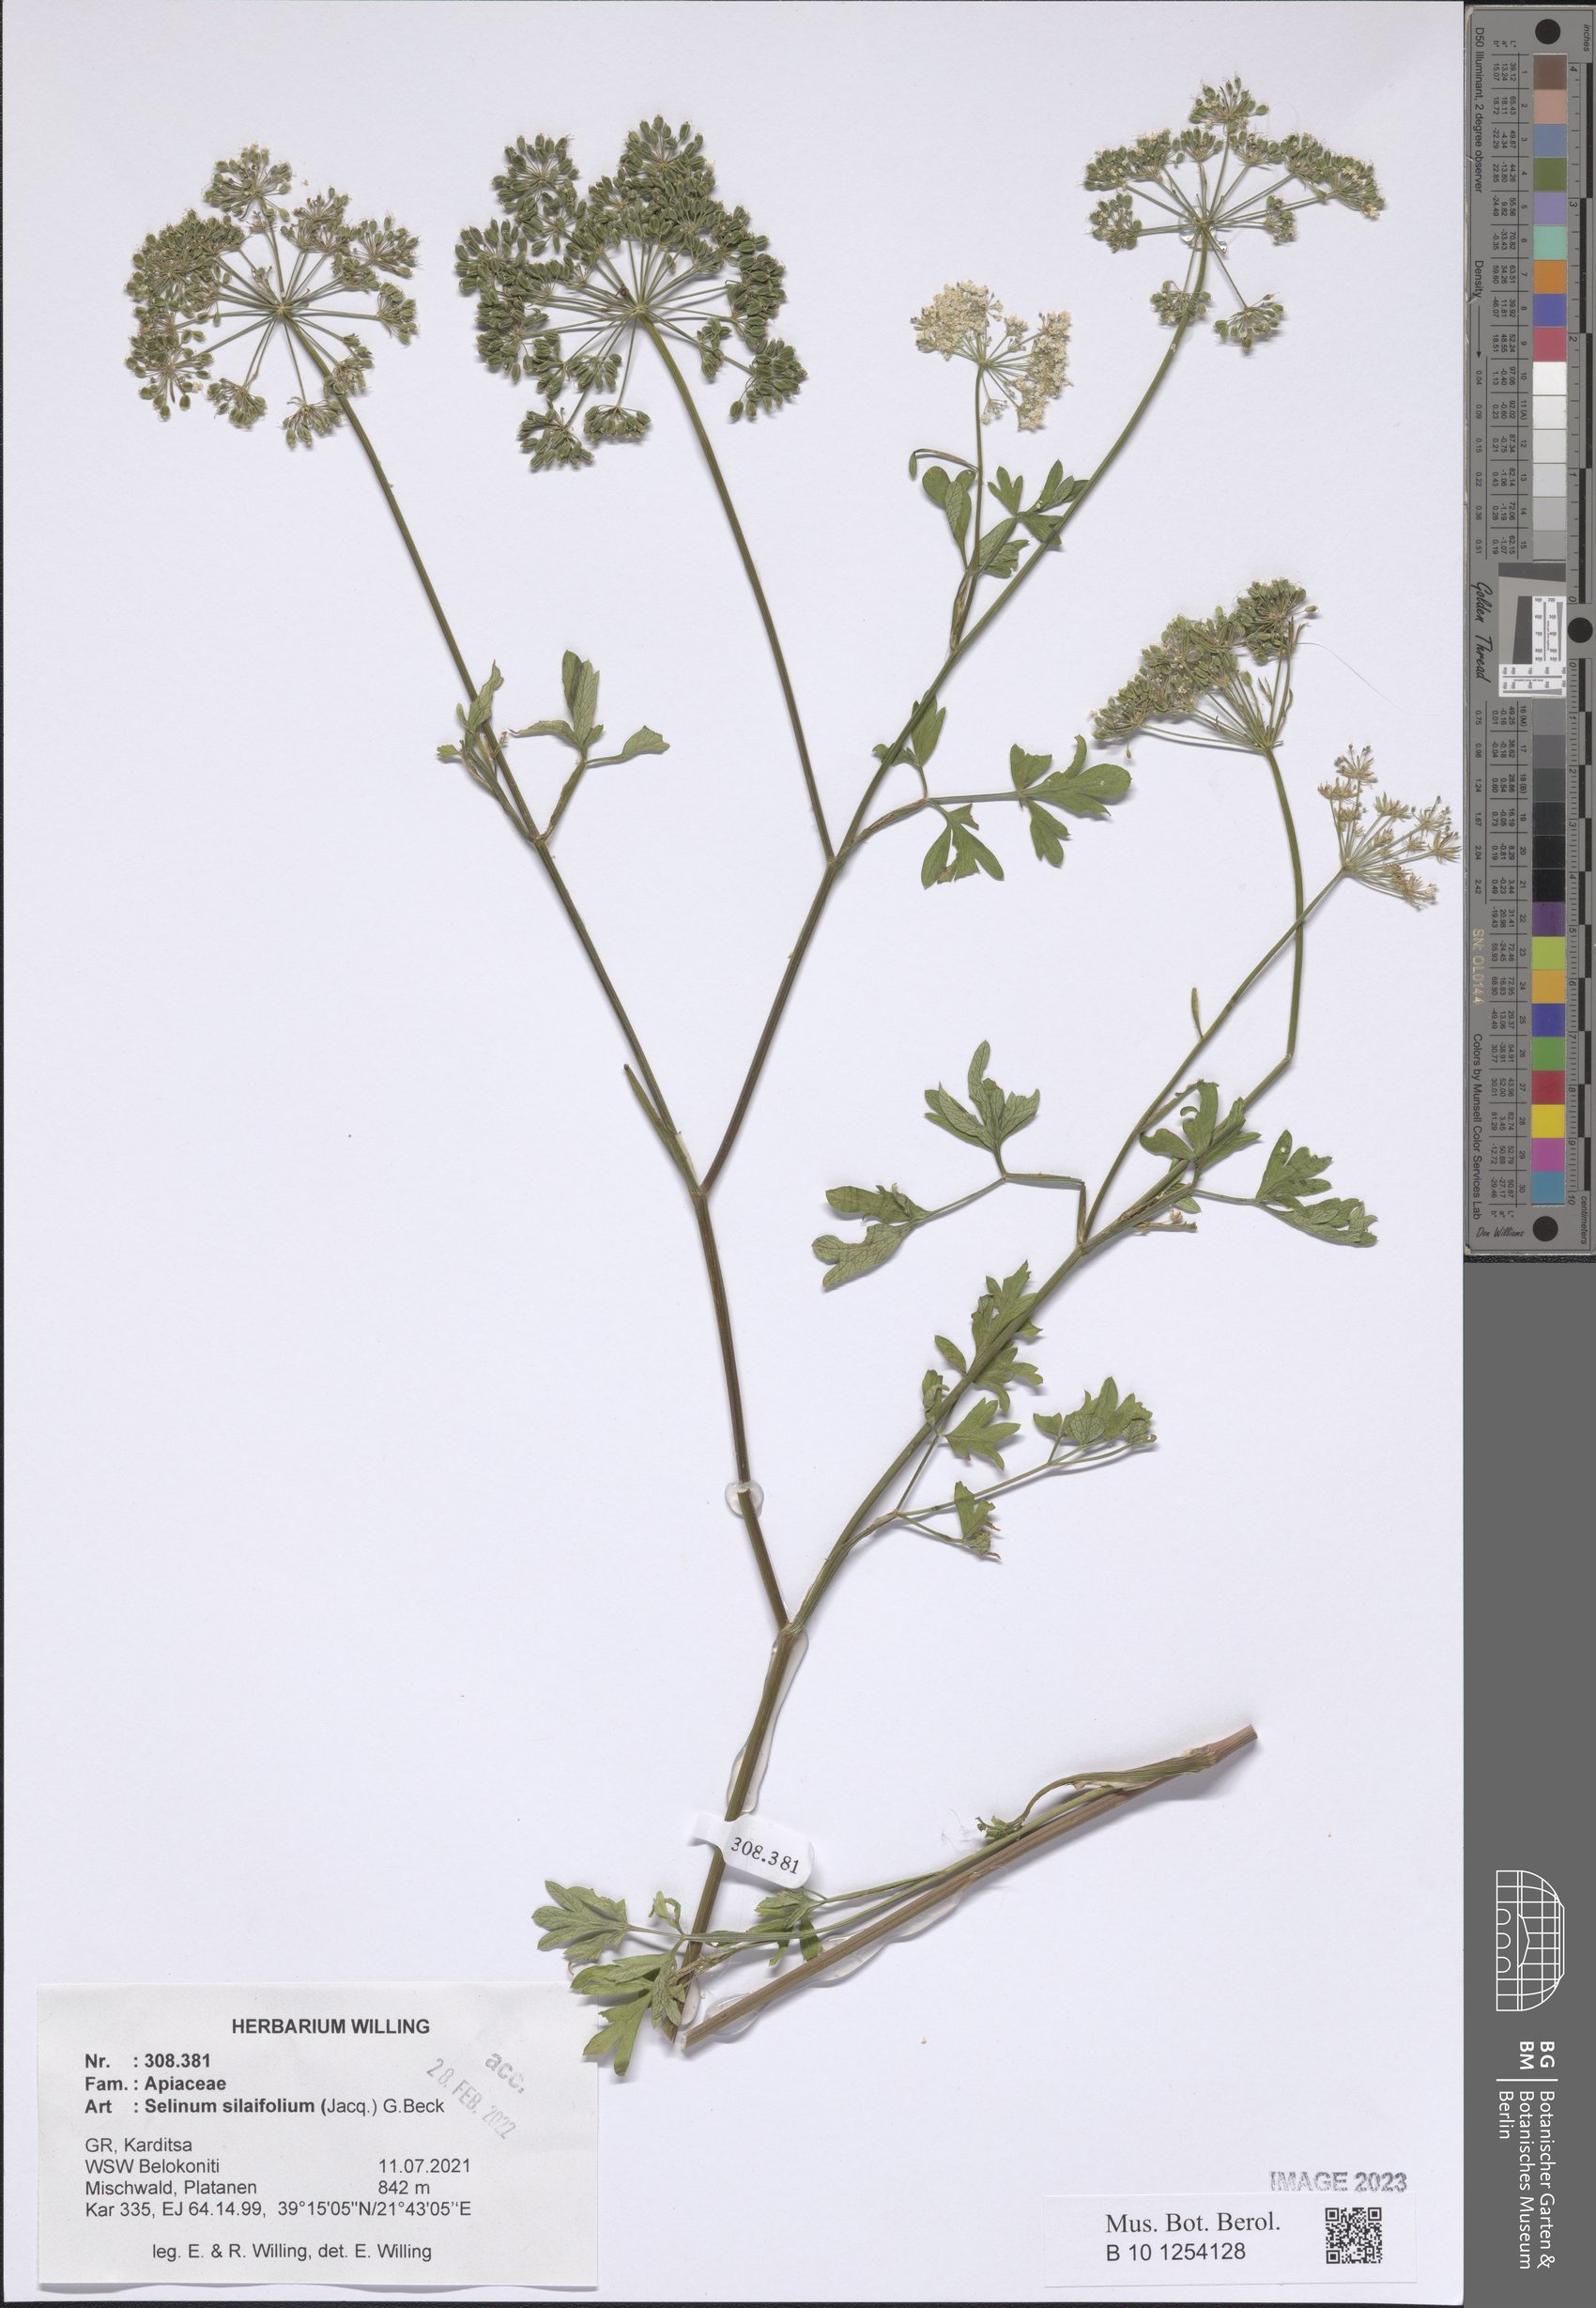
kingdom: Plantae
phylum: Tracheophyta
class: Magnoliopsida
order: Apiales
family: Apiaceae
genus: Katapsuxis
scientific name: Katapsuxis silaifolia
